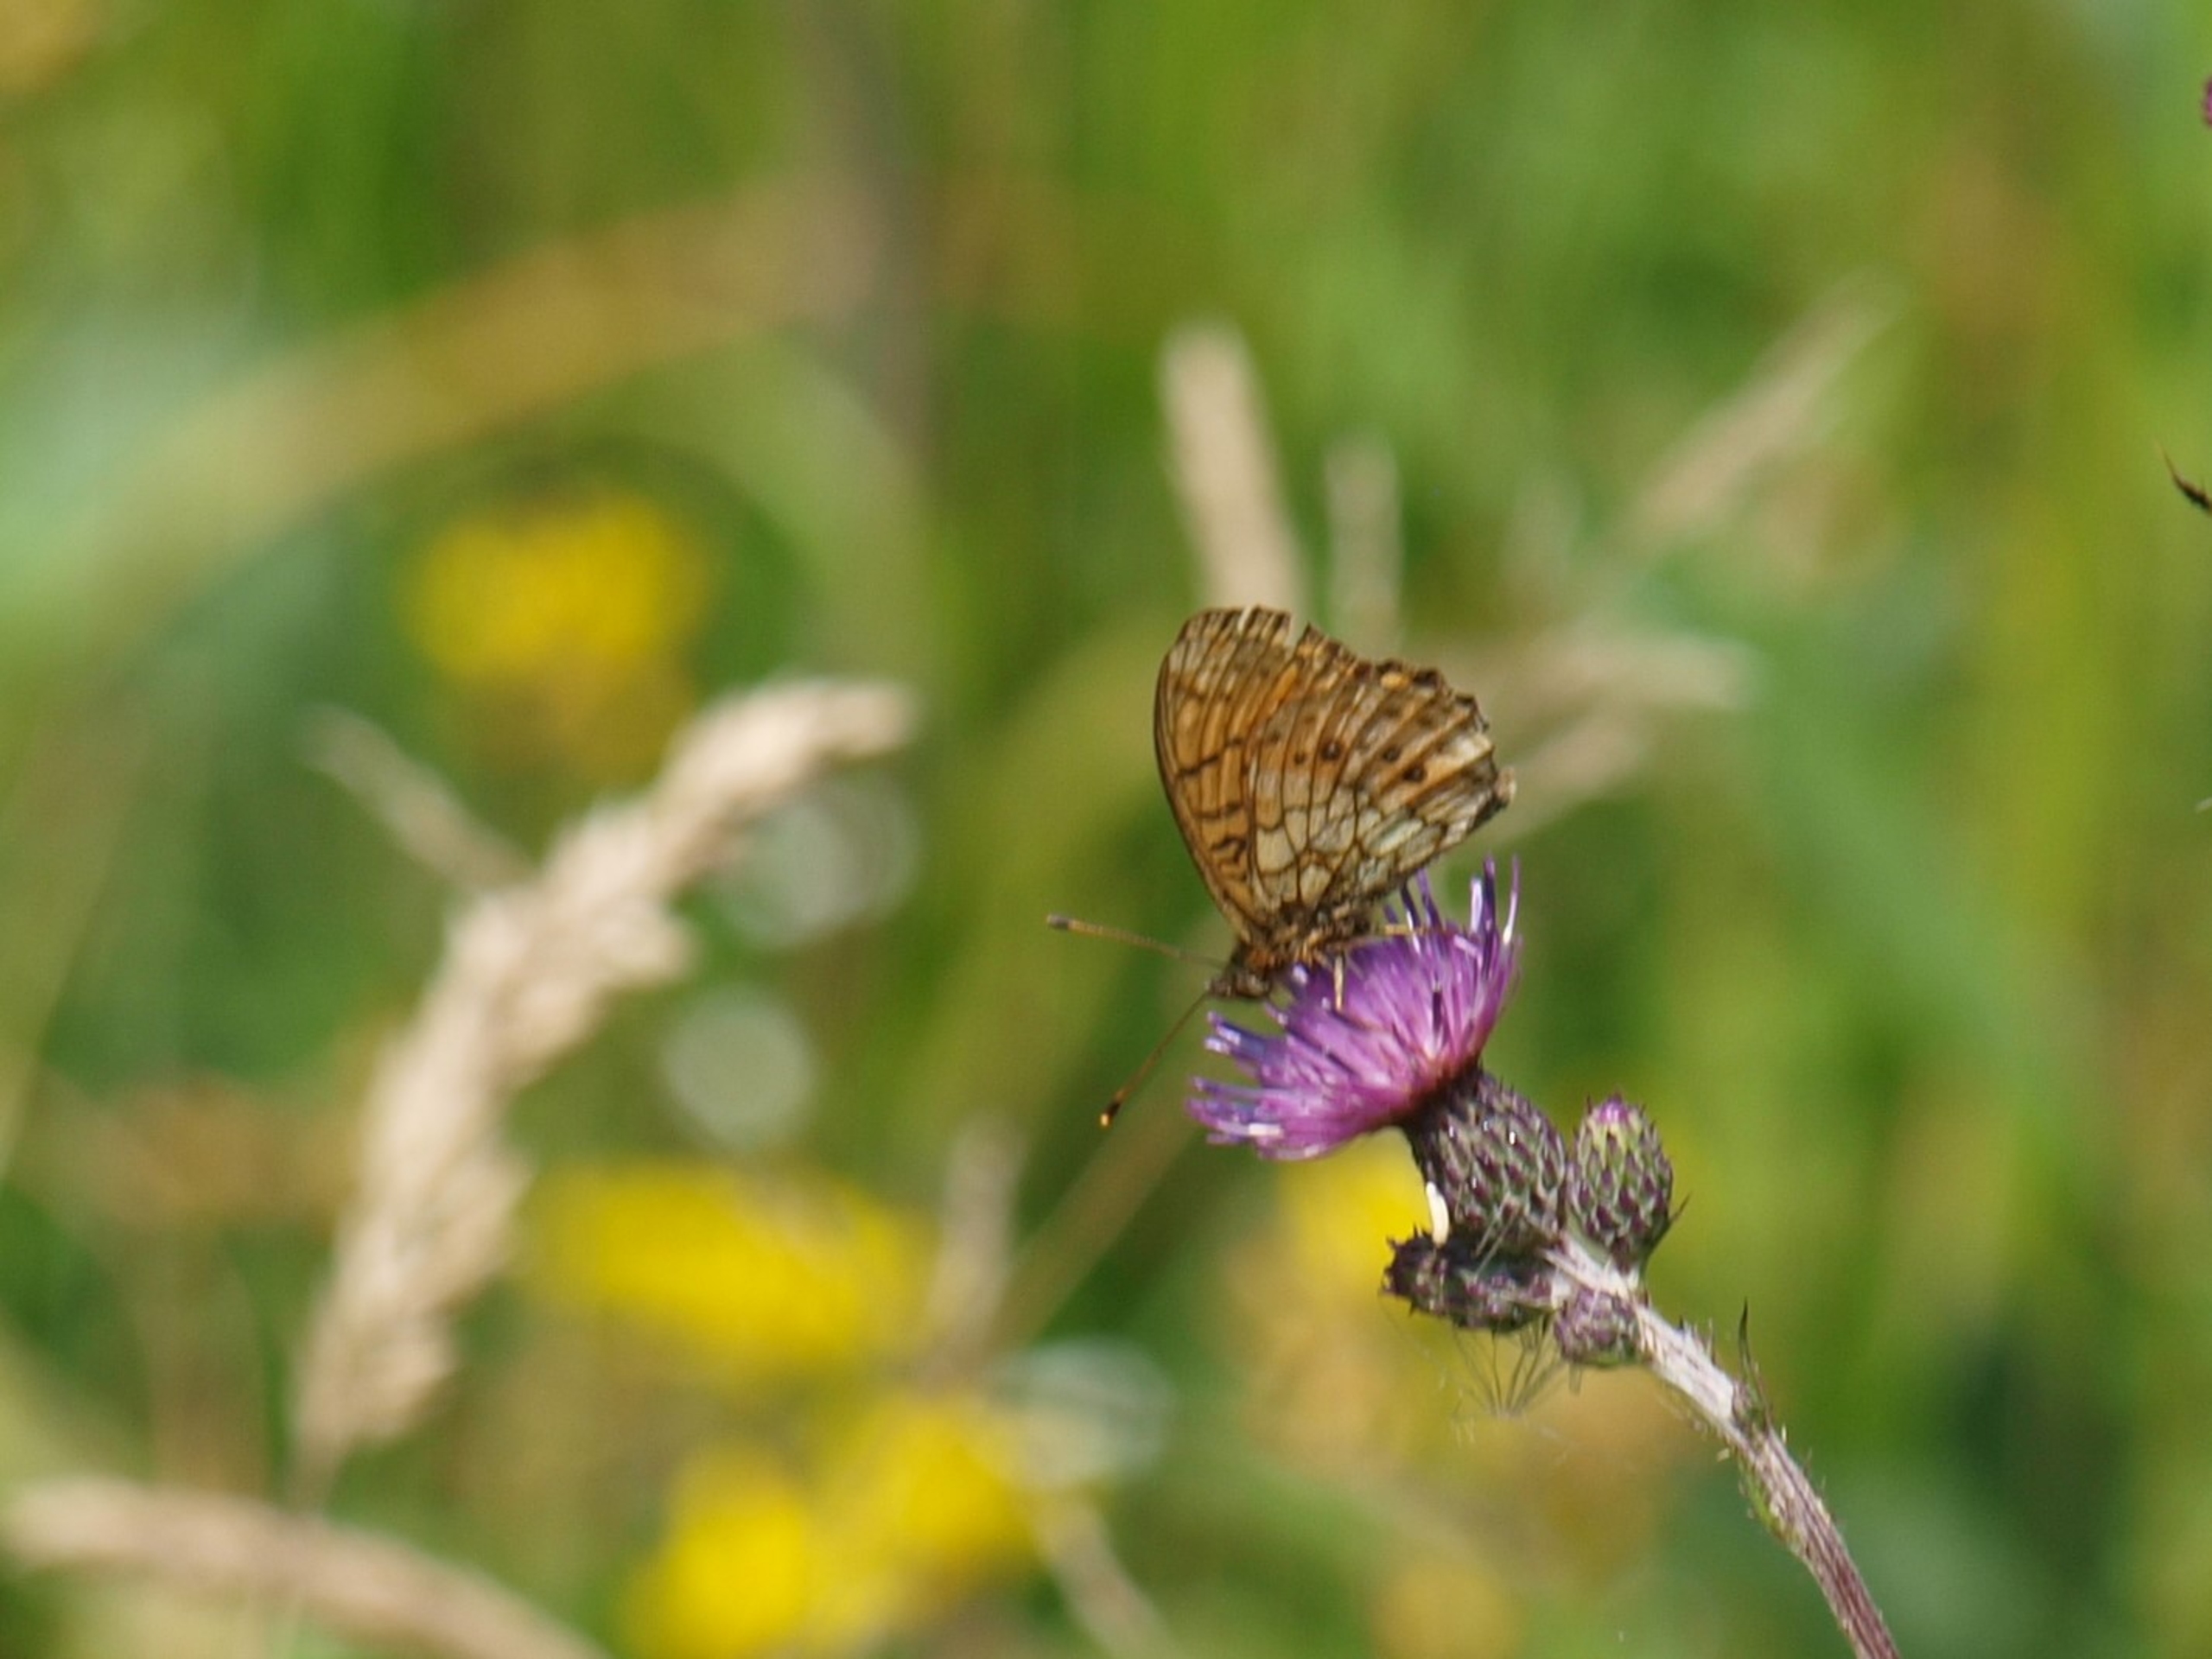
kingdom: Animalia
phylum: Arthropoda
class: Insecta
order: Lepidoptera
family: Nymphalidae
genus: Brenthis
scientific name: Brenthis ino
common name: Engperlemorsommerfugl
